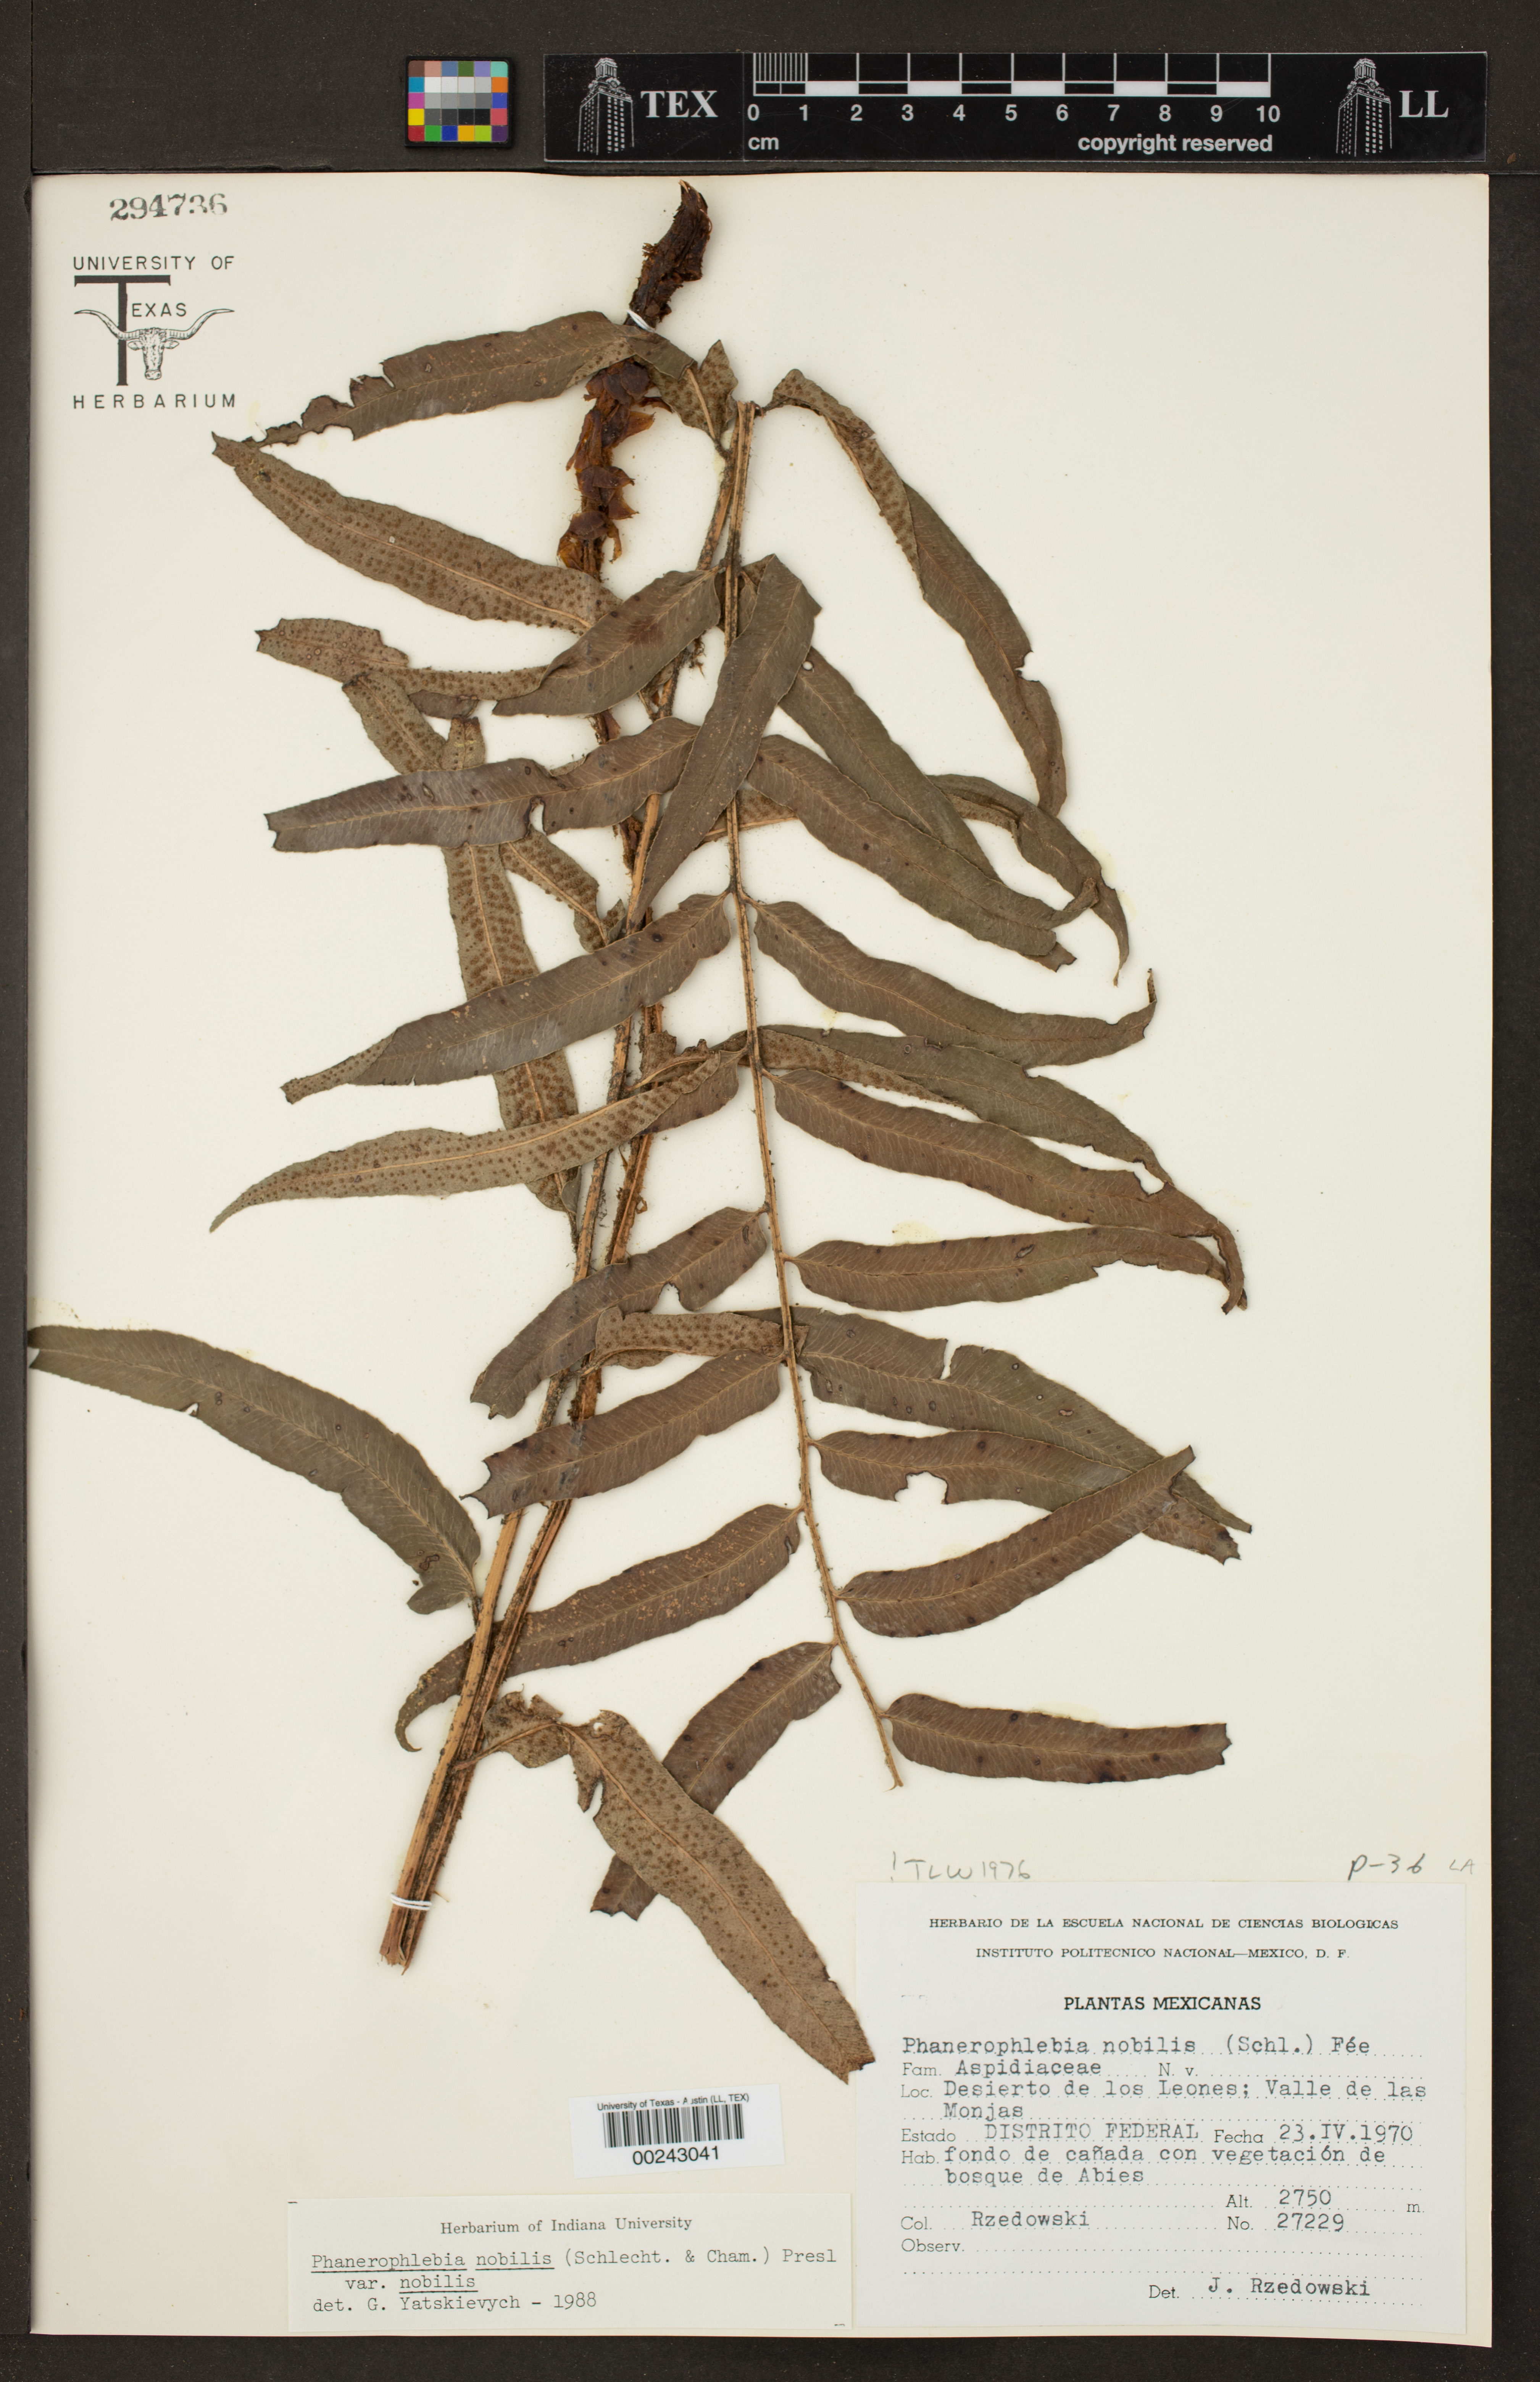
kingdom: Plantae
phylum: Tracheophyta
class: Polypodiopsida
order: Polypodiales
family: Dryopteridaceae
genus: Phanerophlebia
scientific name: Phanerophlebia nobilis
